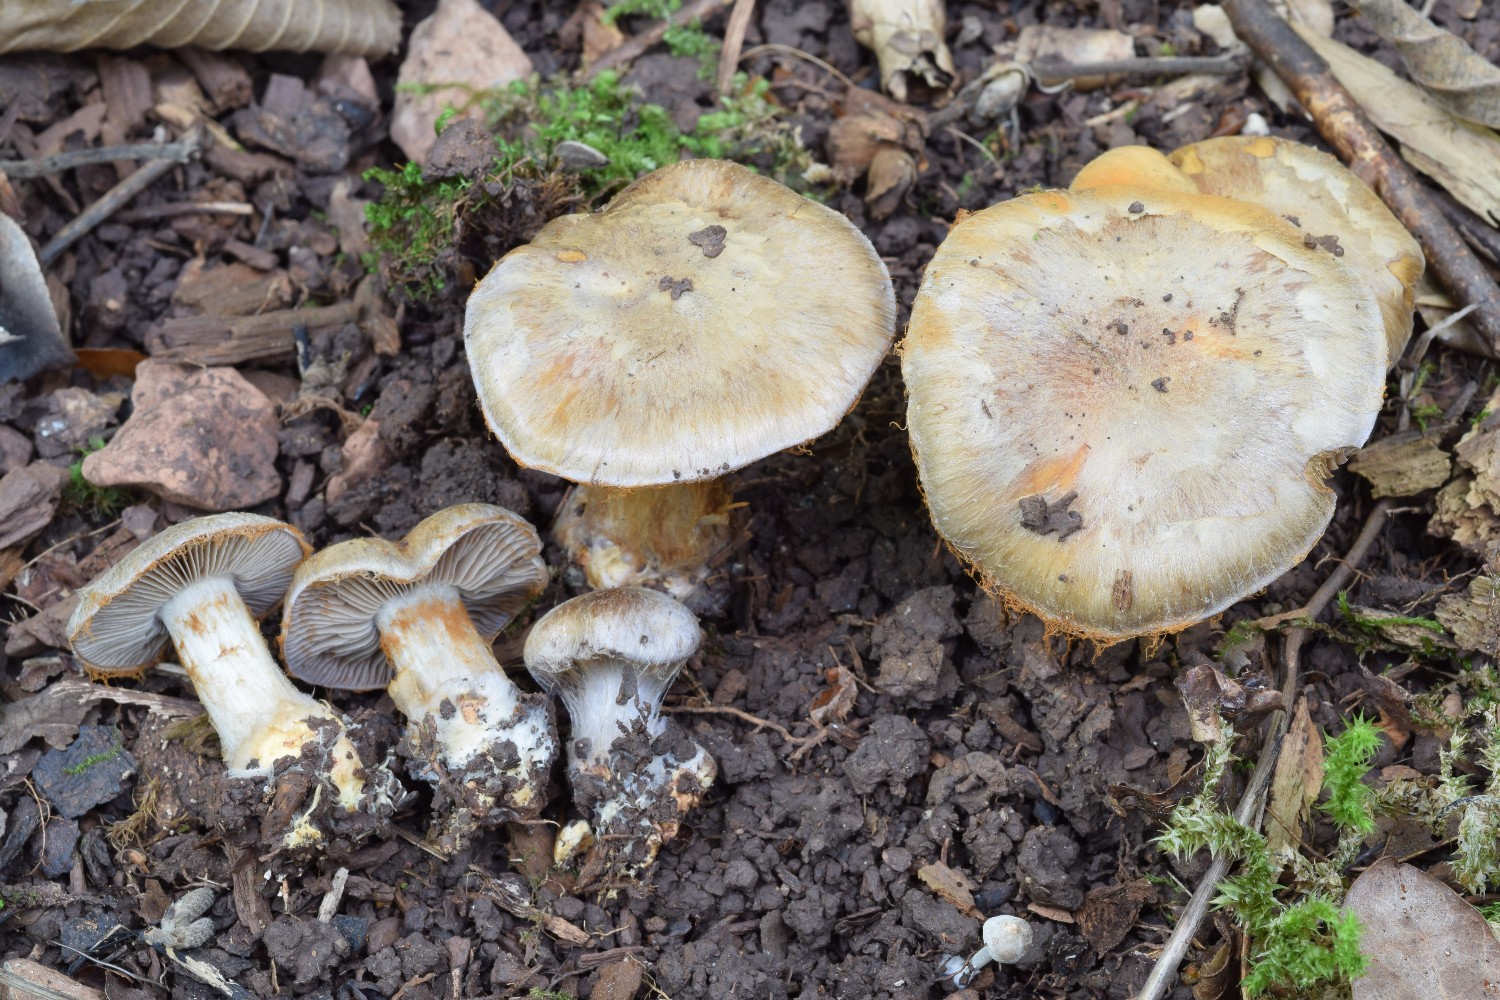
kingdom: Fungi
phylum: Basidiomycota
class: Agaricomycetes
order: Agaricales
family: Cortinariaceae
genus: Cortinarius
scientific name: Cortinarius arcifolius
